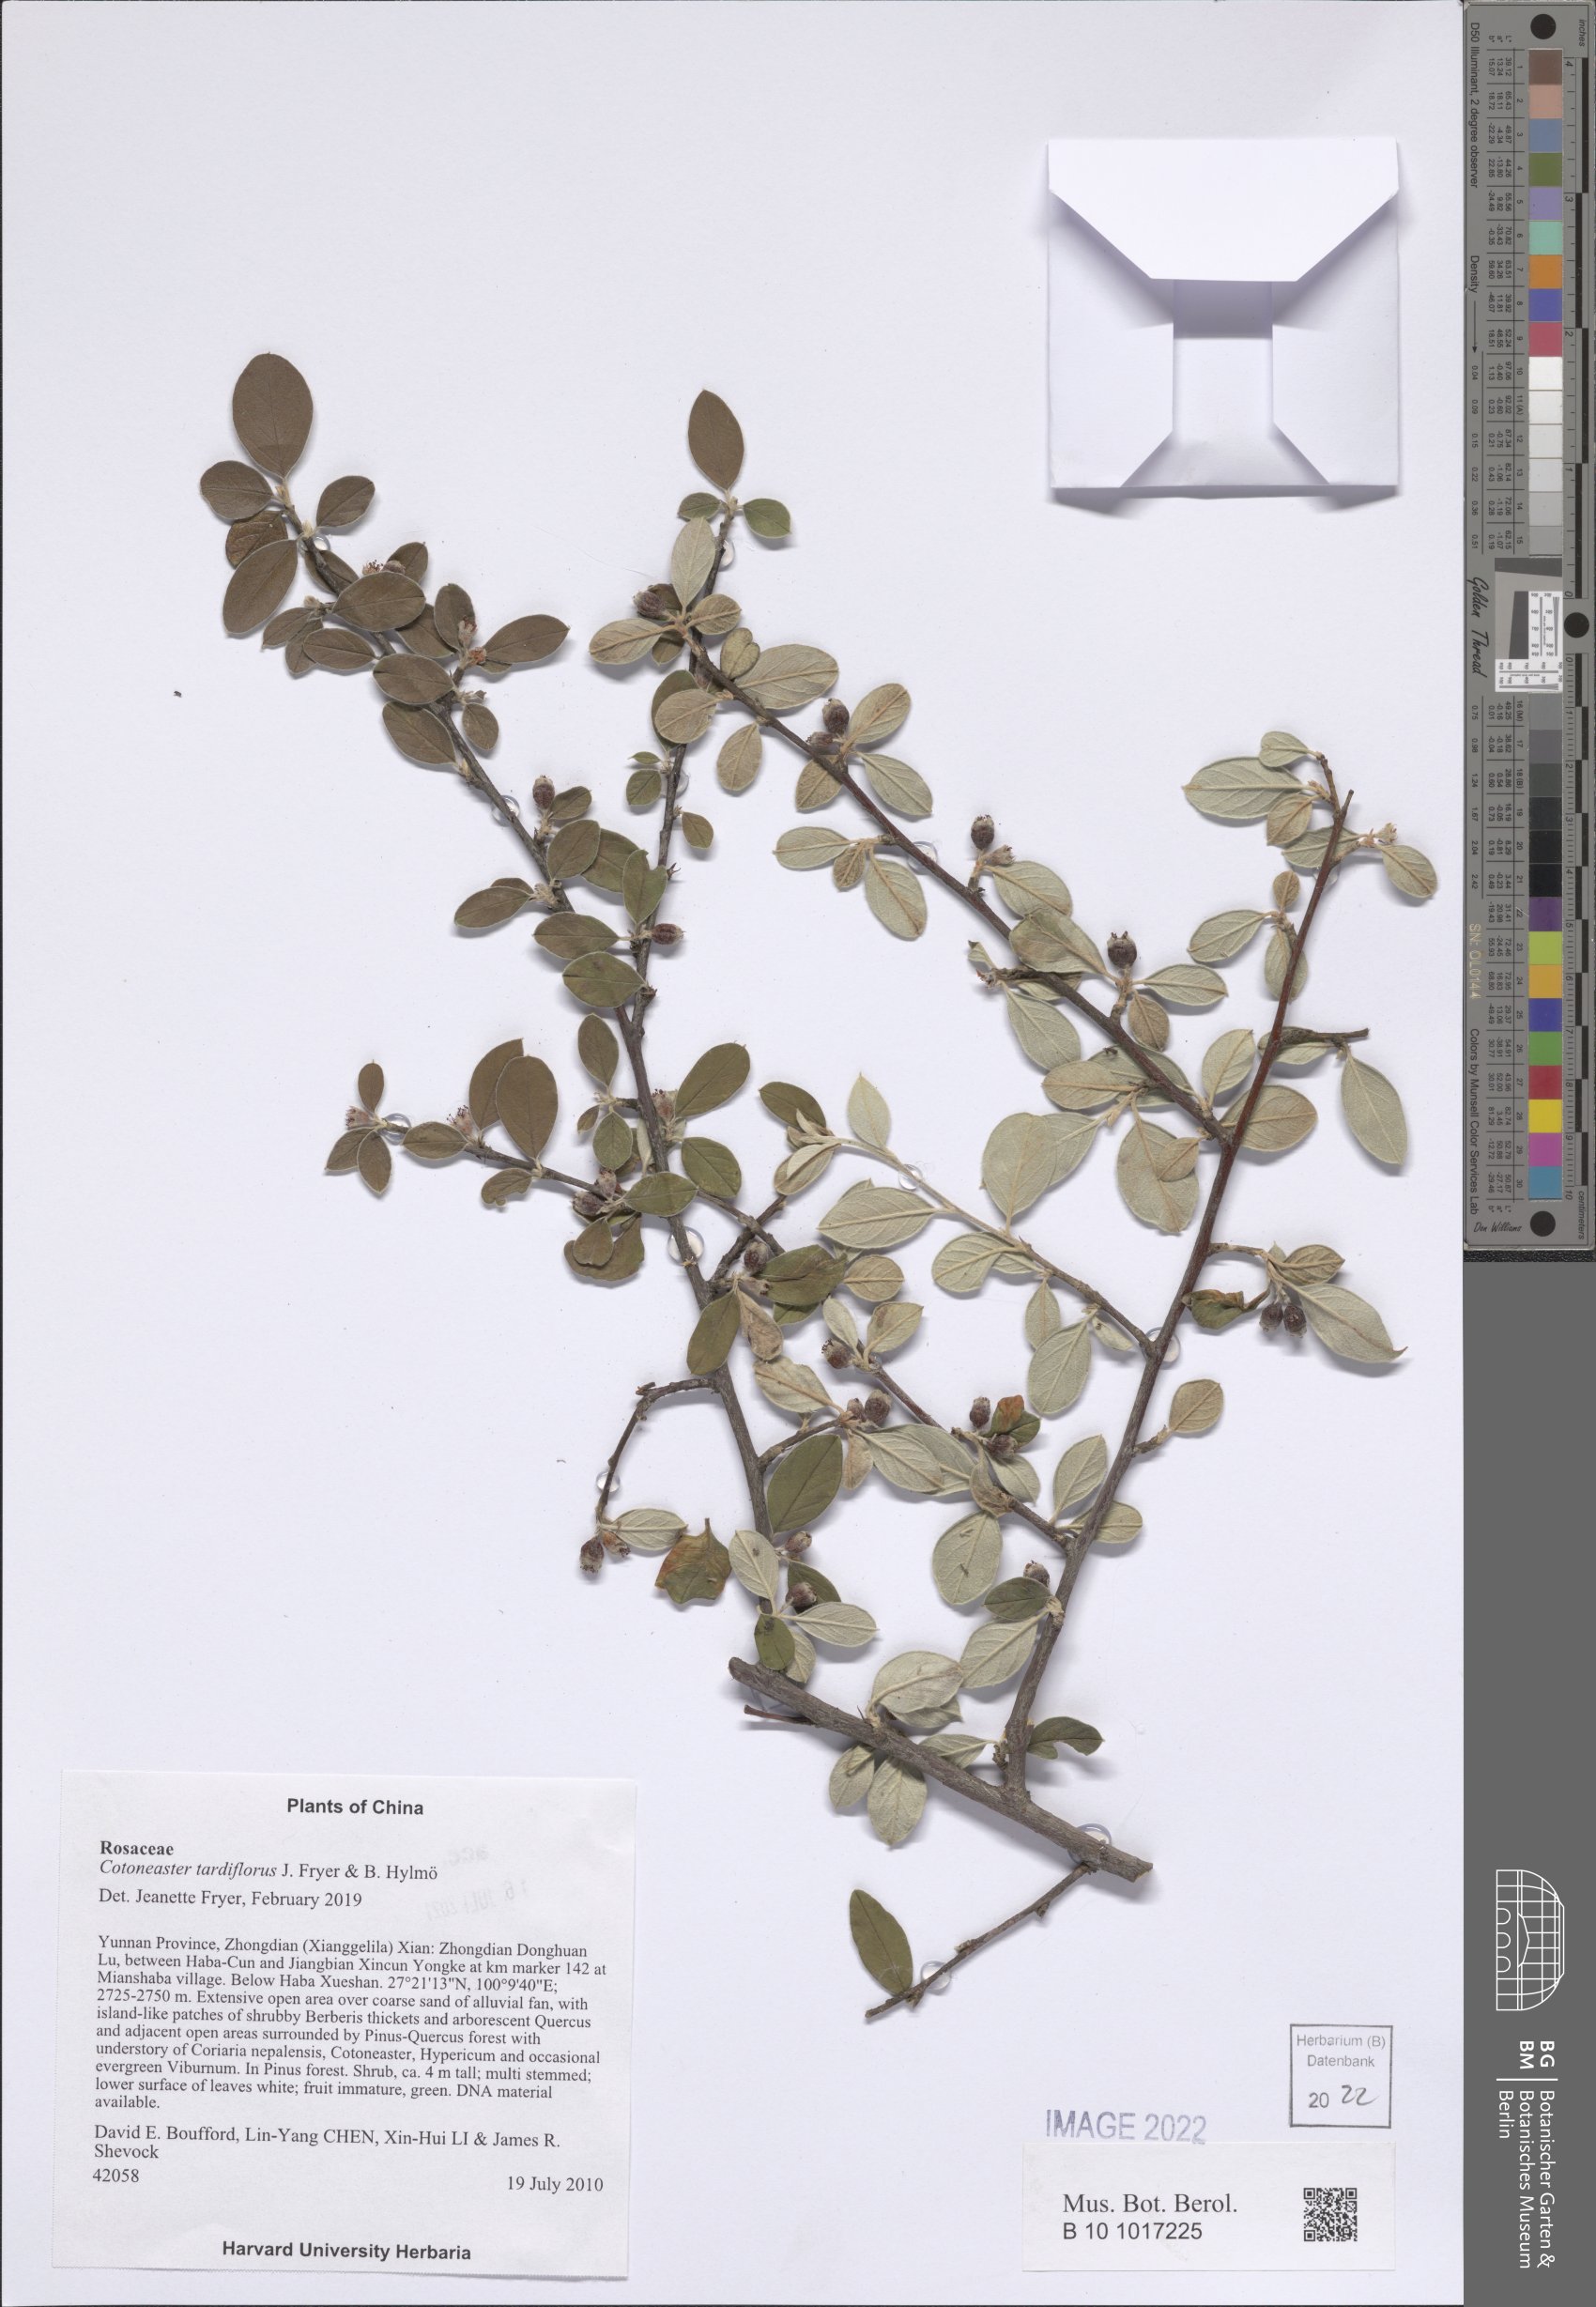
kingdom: Plantae
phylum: Tracheophyta
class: Magnoliopsida
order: Rosales
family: Rosaceae
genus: Cotoneaster
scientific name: Cotoneaster dielsianus
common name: Diels's cotoneaster
